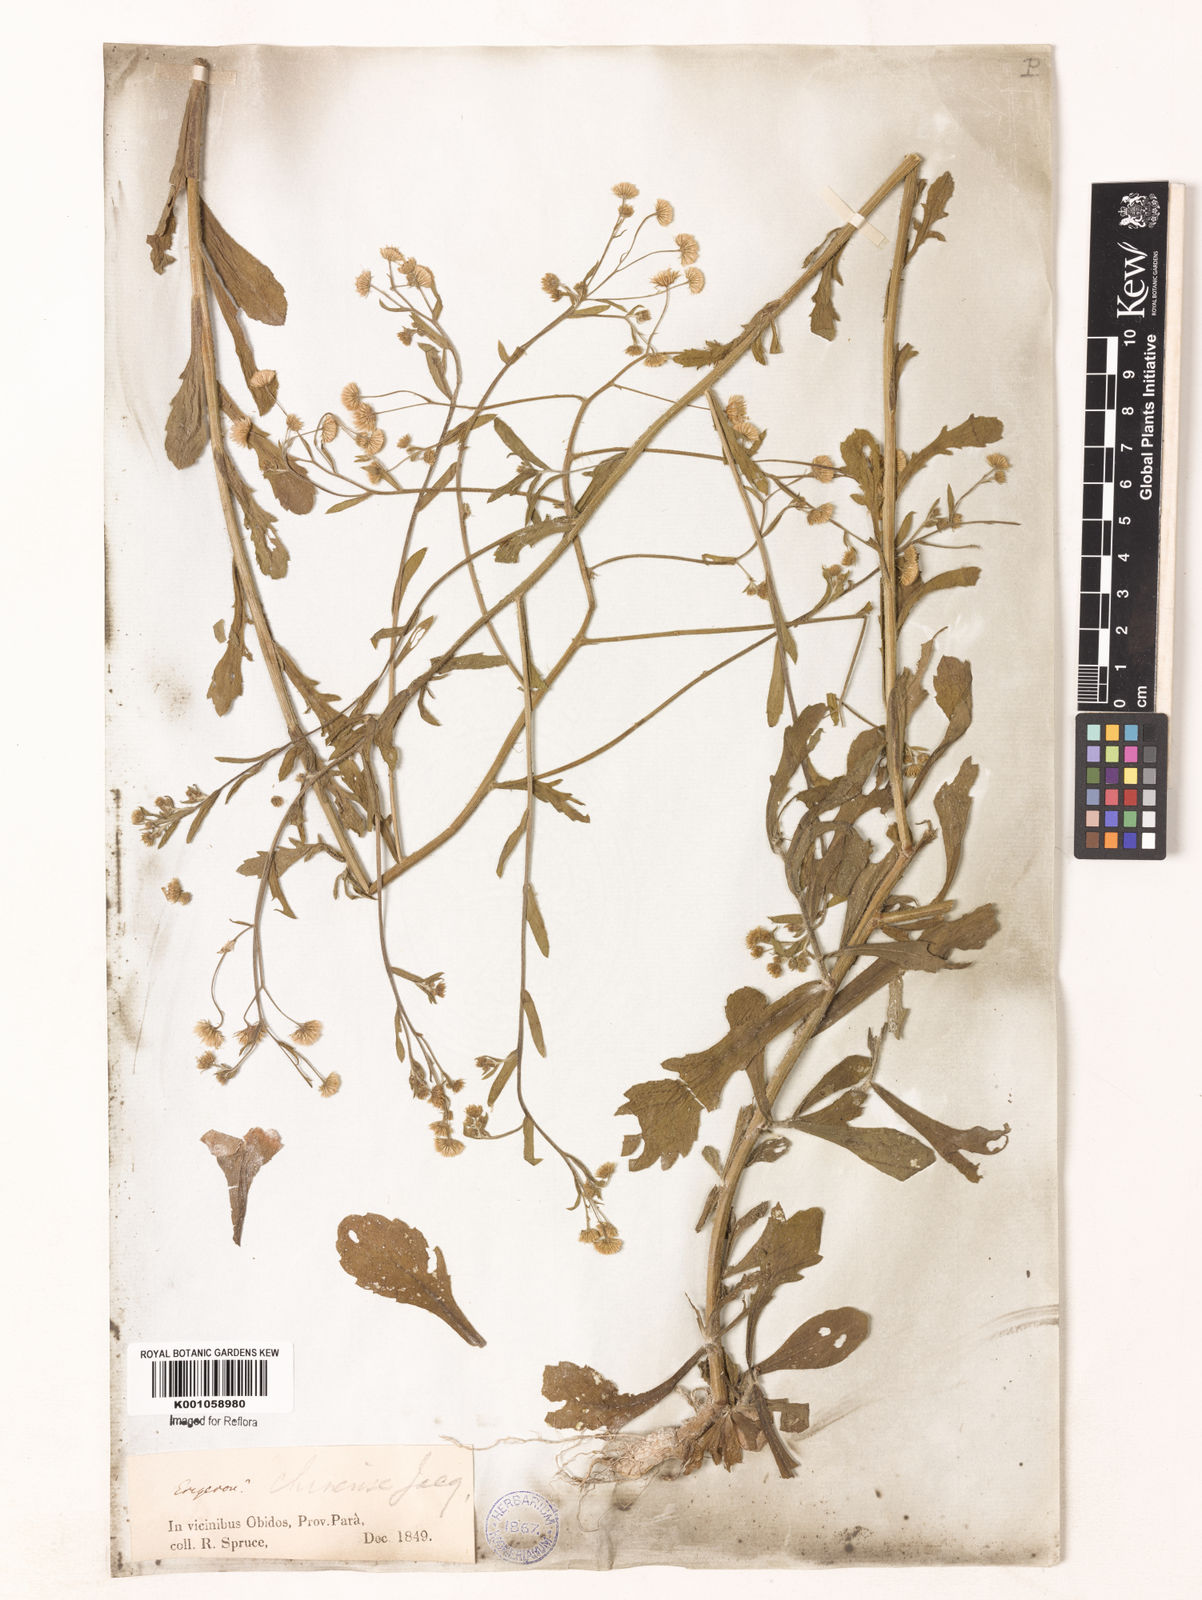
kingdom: Plantae
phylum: Tracheophyta
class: Magnoliopsida
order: Asterales
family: Asteraceae
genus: Erigeron
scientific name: Erigeron
